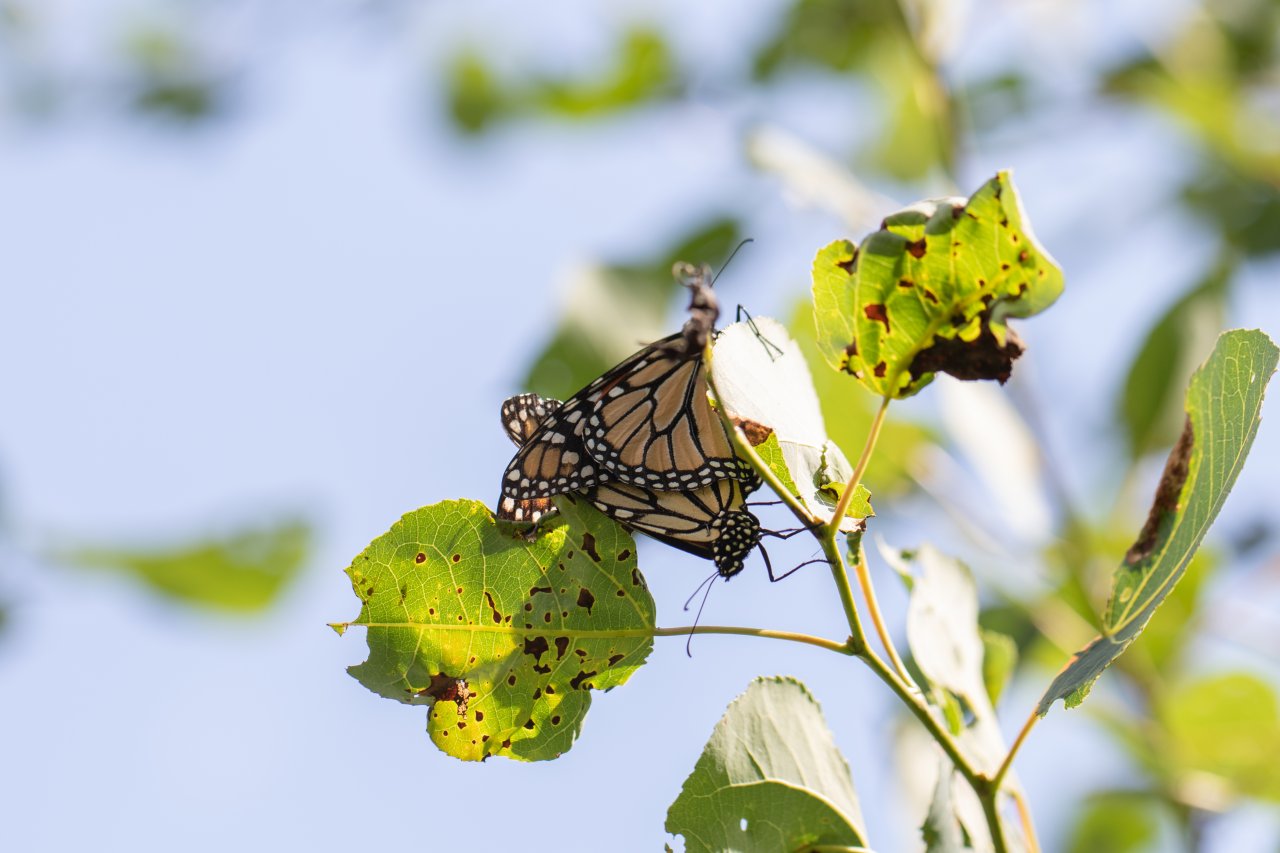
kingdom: Animalia
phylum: Arthropoda
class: Insecta
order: Lepidoptera
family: Nymphalidae
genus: Danaus
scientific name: Danaus plexippus
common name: Monarch
